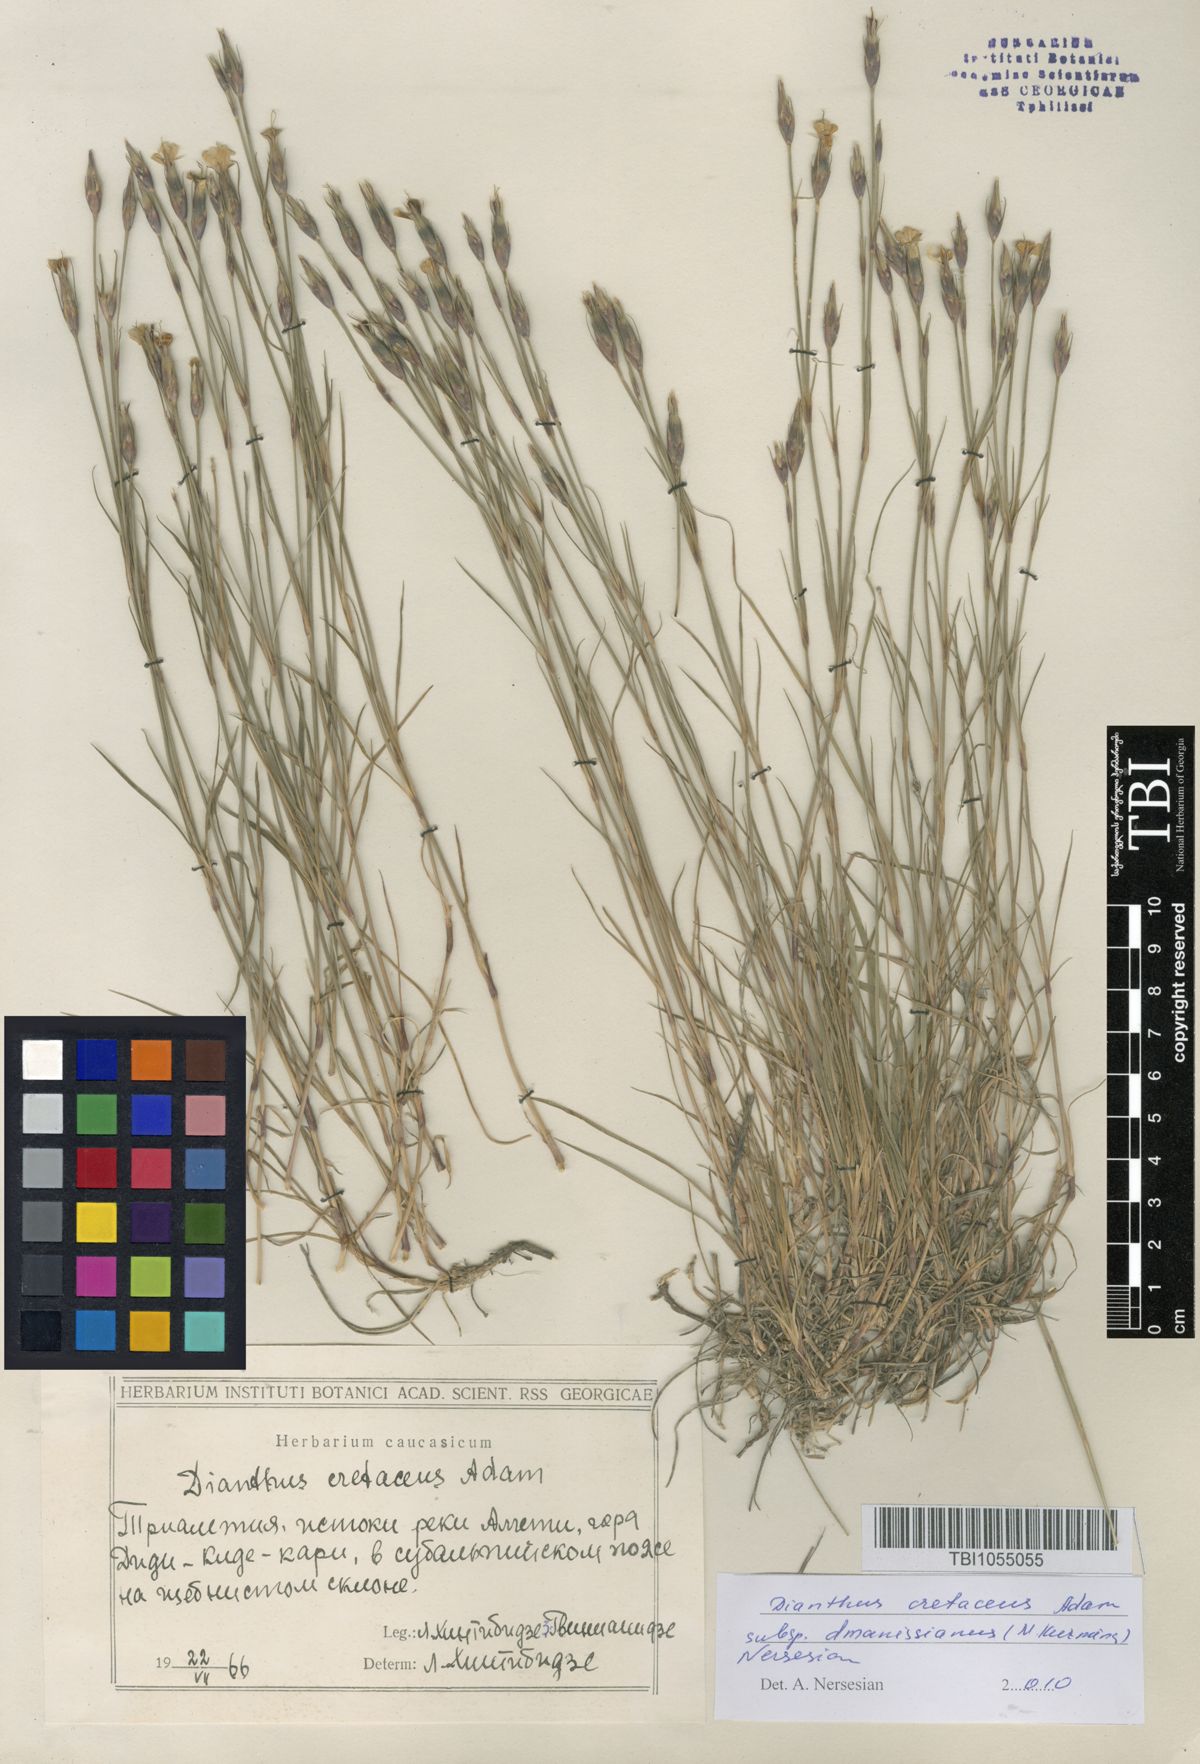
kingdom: Plantae
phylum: Tracheophyta
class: Magnoliopsida
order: Caryophyllales
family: Caryophyllaceae
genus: Dianthus
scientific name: Dianthus cretaceus
